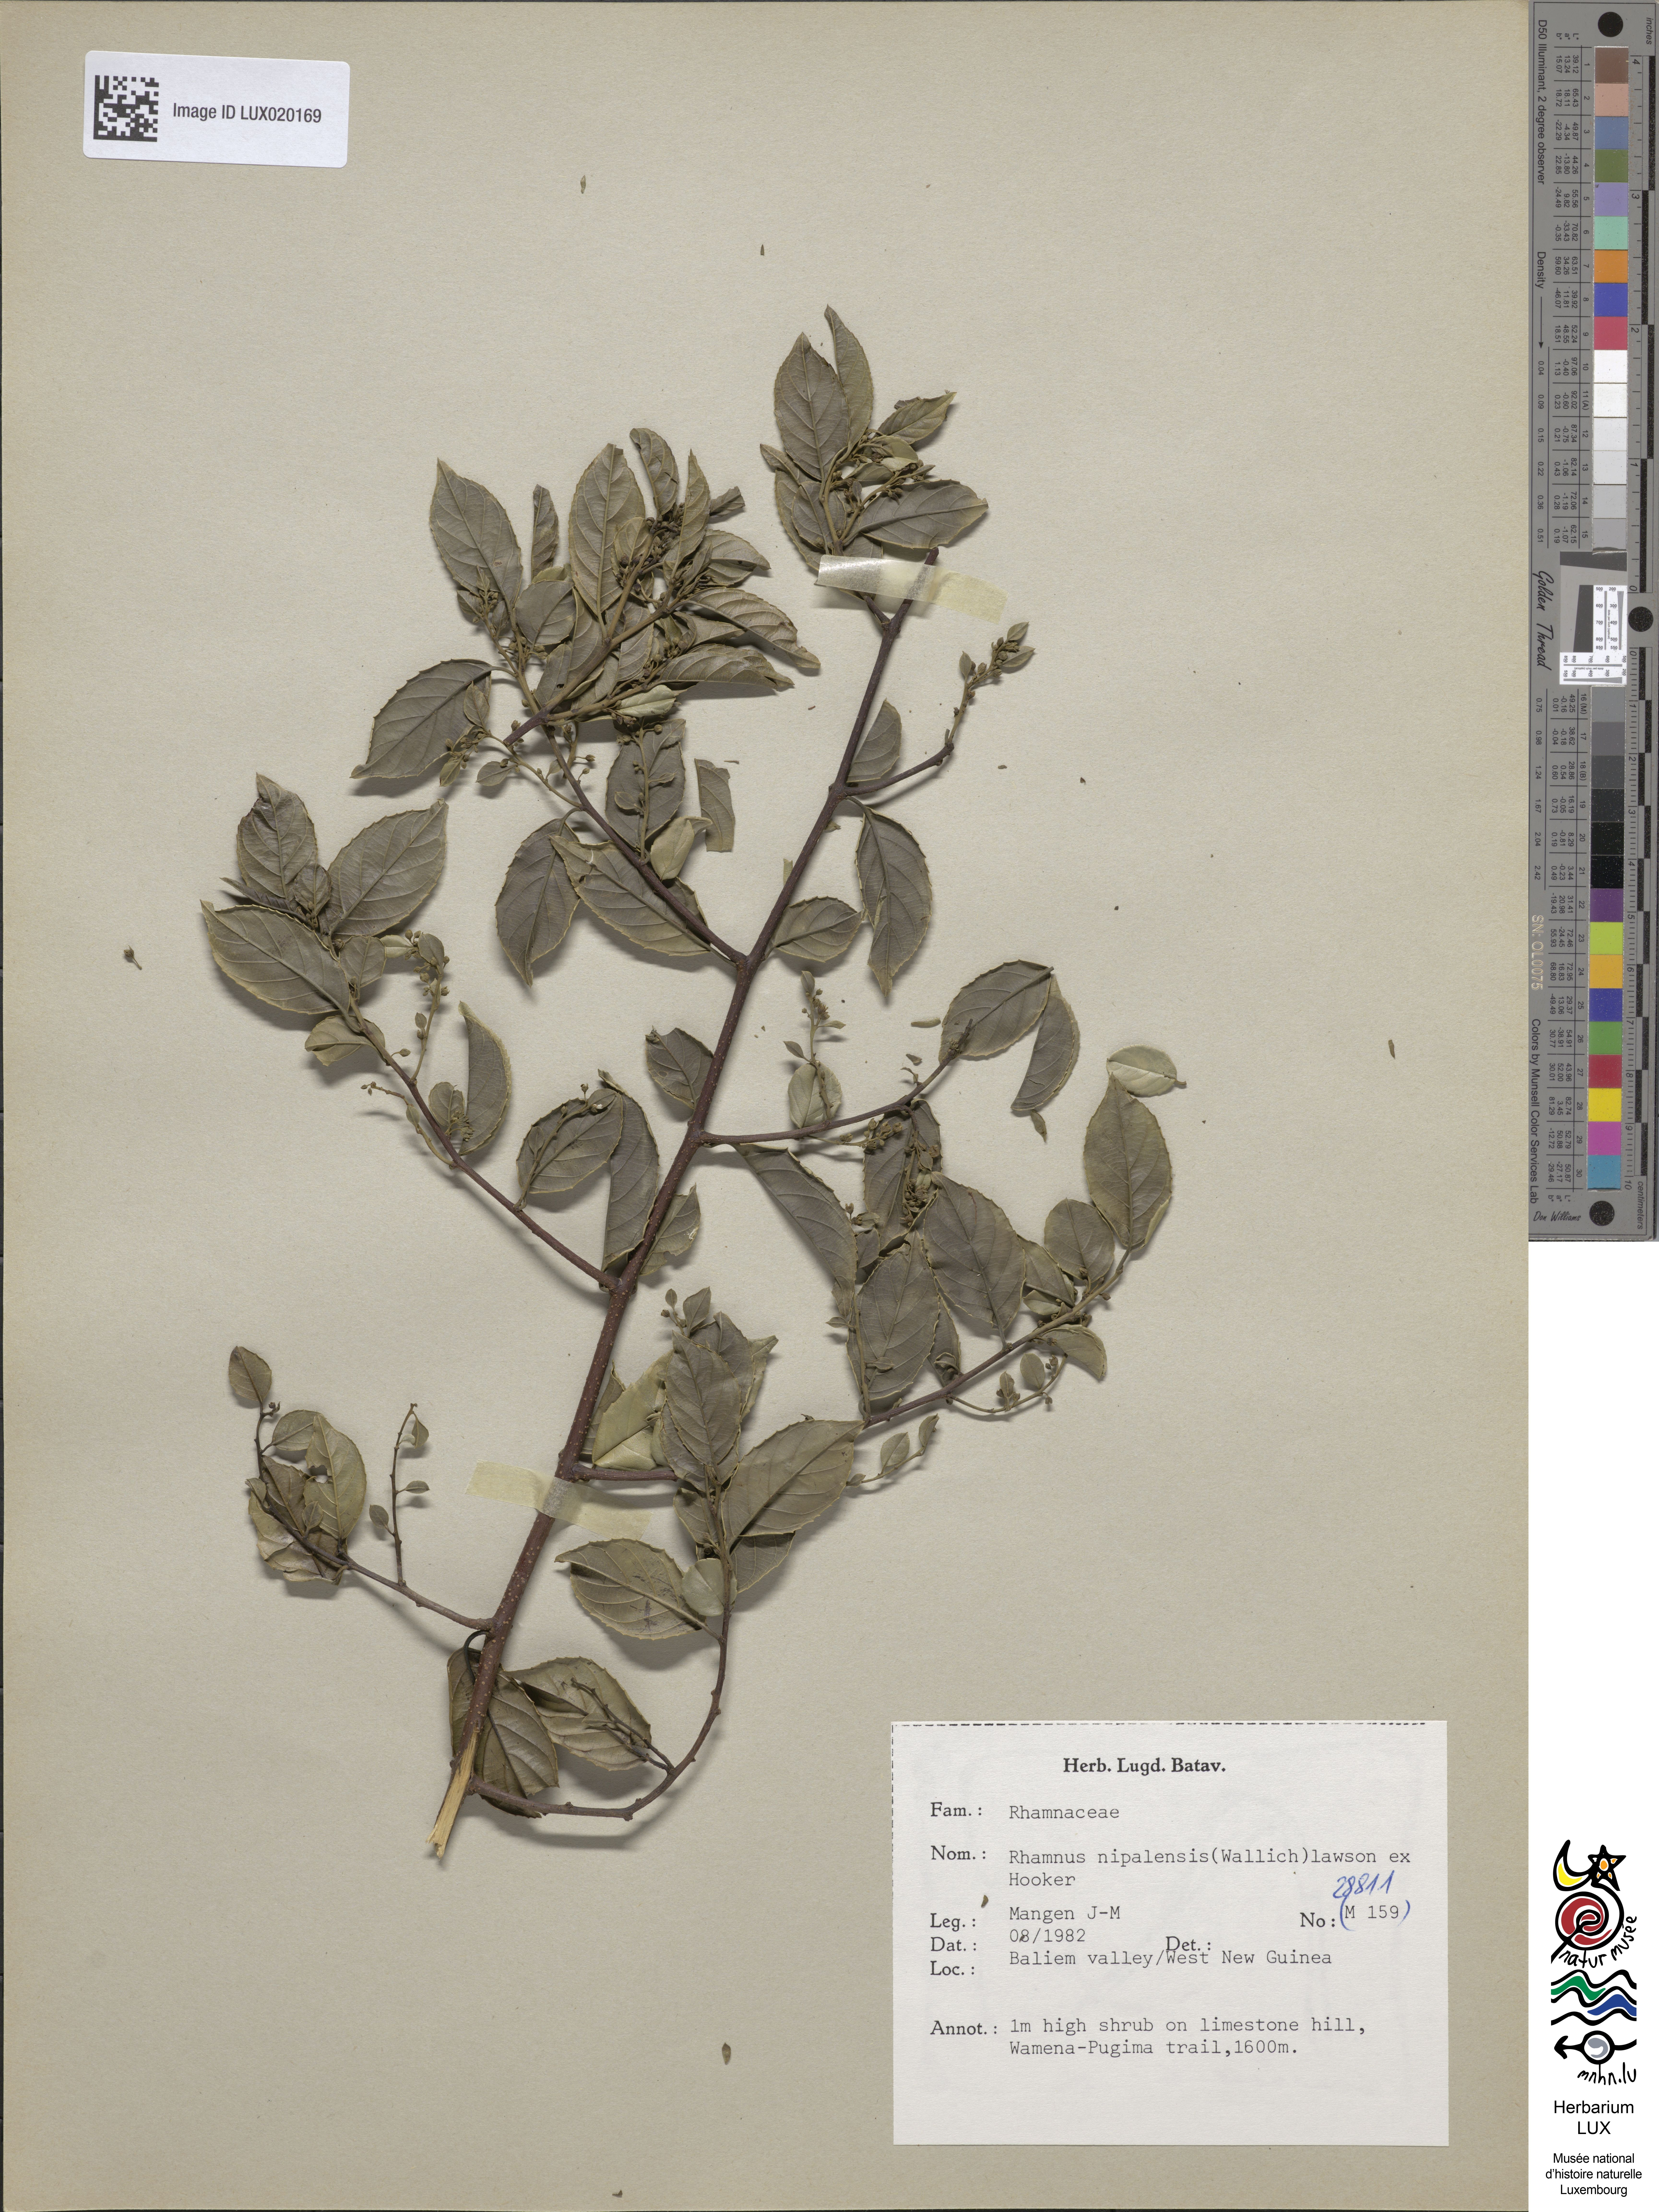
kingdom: Plantae
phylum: Tracheophyta
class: Magnoliopsida
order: Rosales
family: Rhamnaceae
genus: Rhamnus
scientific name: Rhamnus
